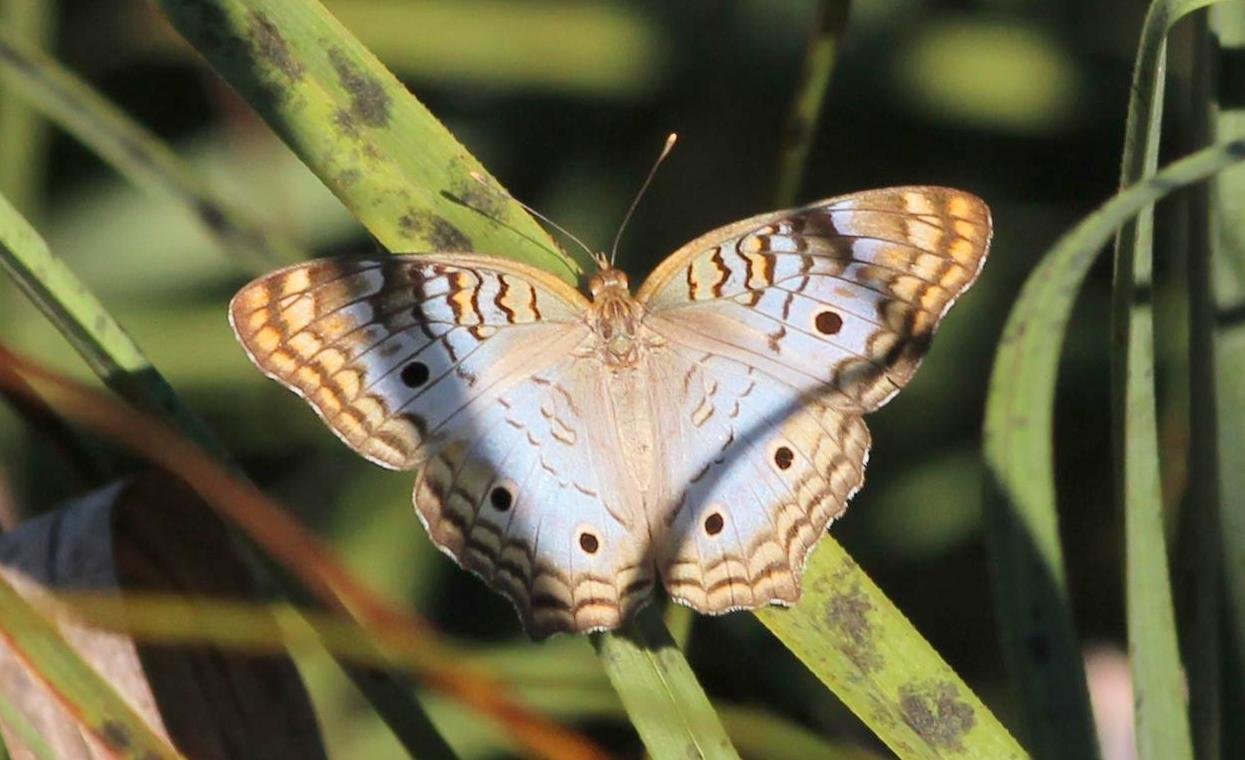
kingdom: Animalia
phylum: Arthropoda
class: Insecta
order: Lepidoptera
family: Nymphalidae
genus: Anartia
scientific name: Anartia jatrophae
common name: White Peacock
